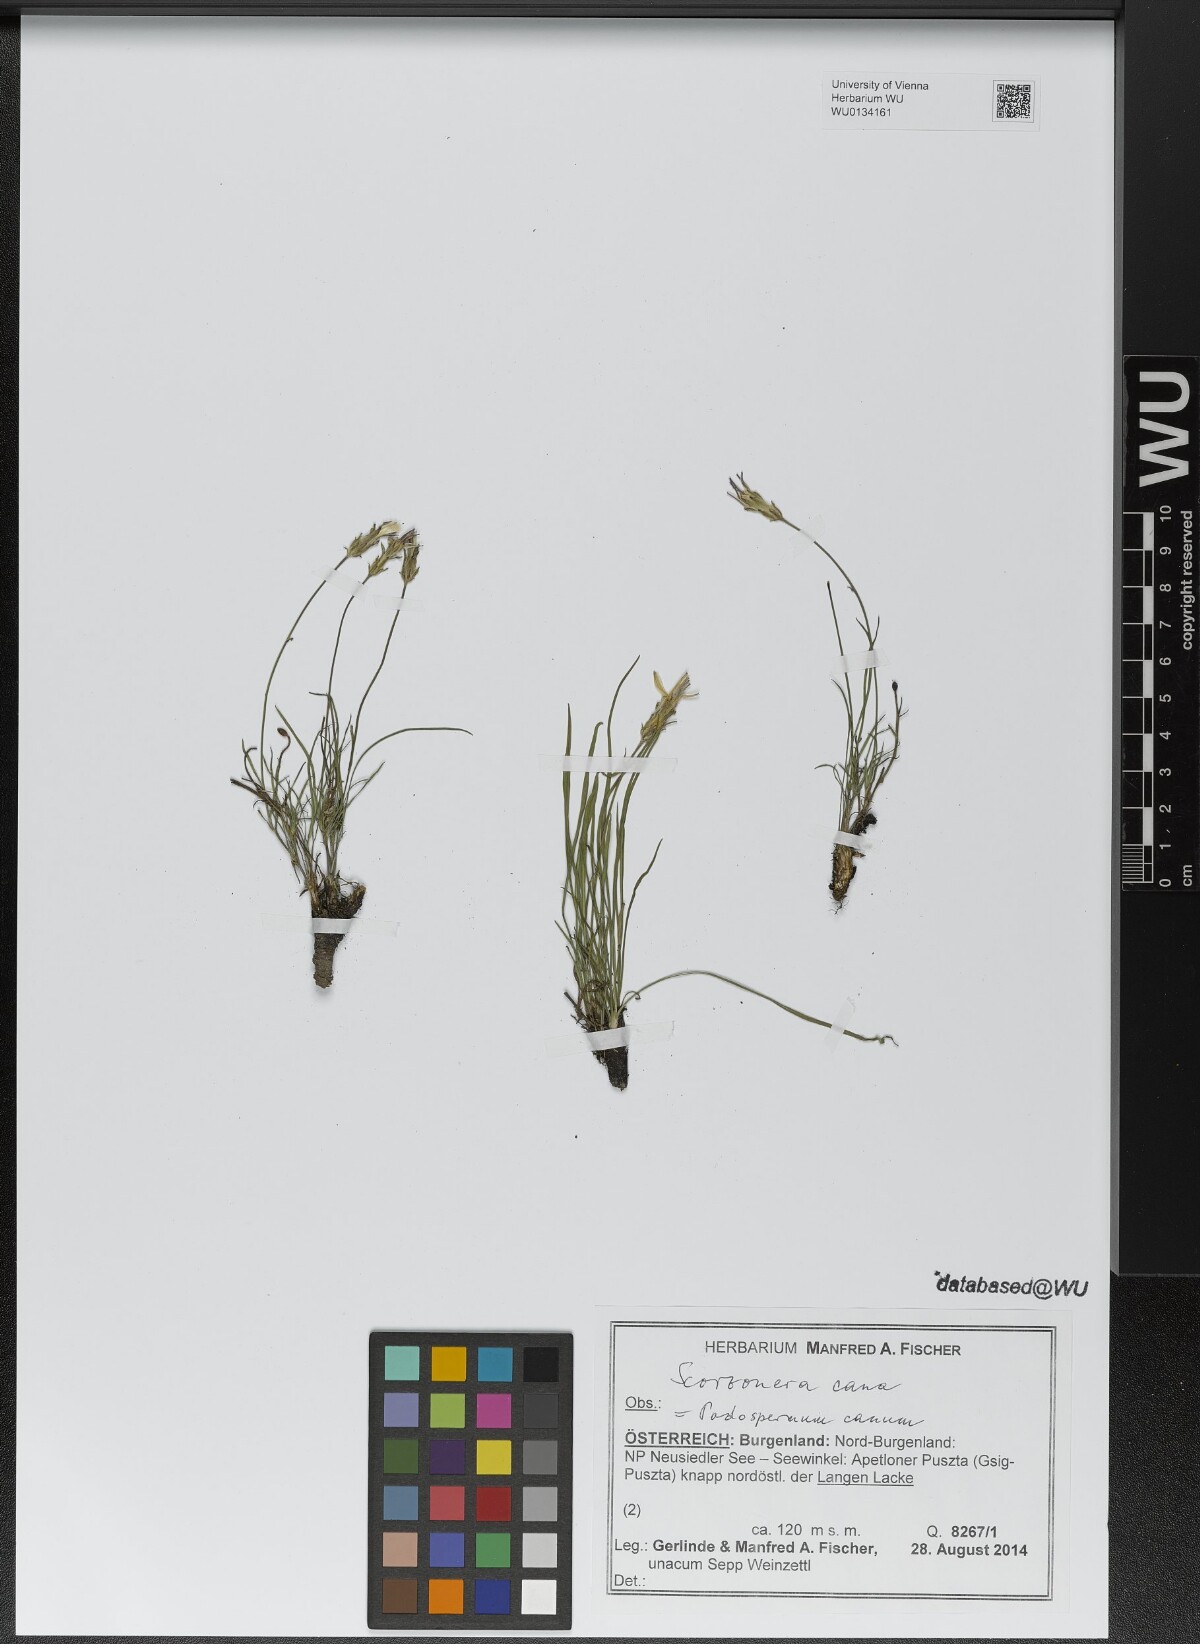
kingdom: Plantae
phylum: Tracheophyta
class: Magnoliopsida
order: Asterales
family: Asteraceae
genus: Scorzonera
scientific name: Scorzonera cana
